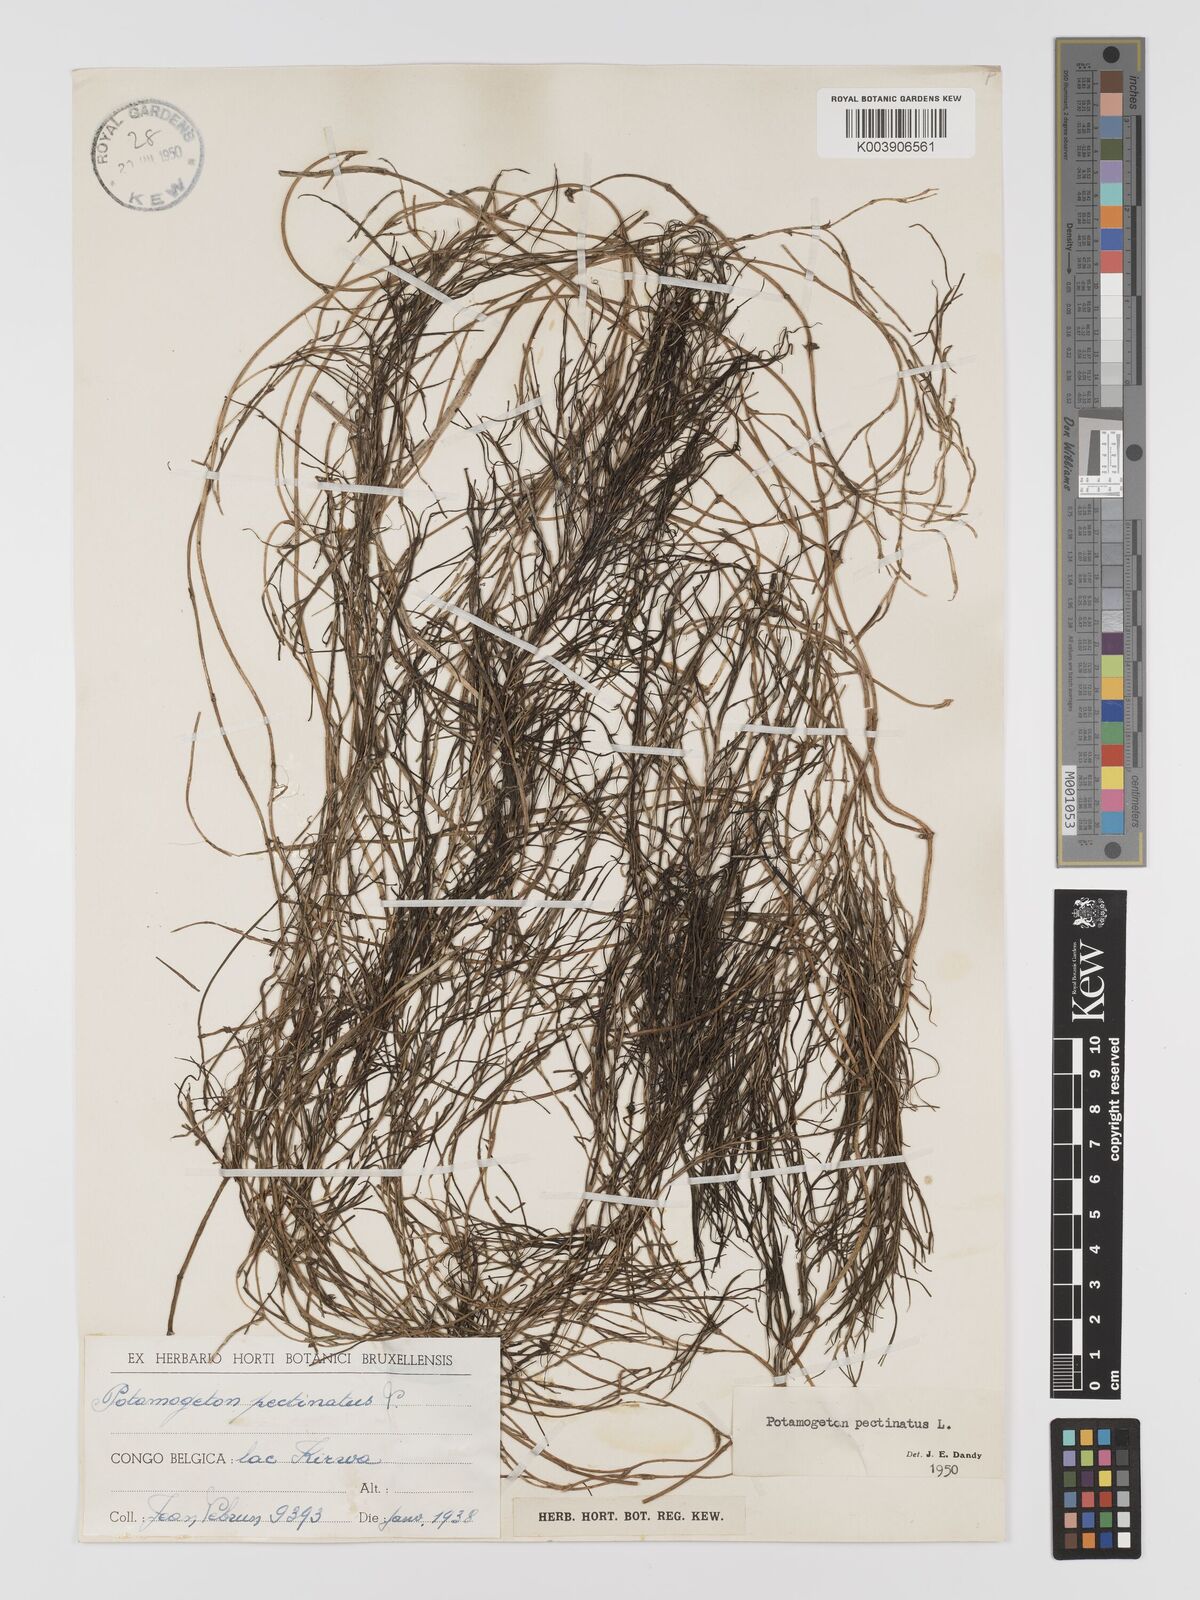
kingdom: Plantae
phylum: Tracheophyta
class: Liliopsida
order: Alismatales
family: Potamogetonaceae
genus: Stuckenia
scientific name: Stuckenia pectinata
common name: Sago pondweed
